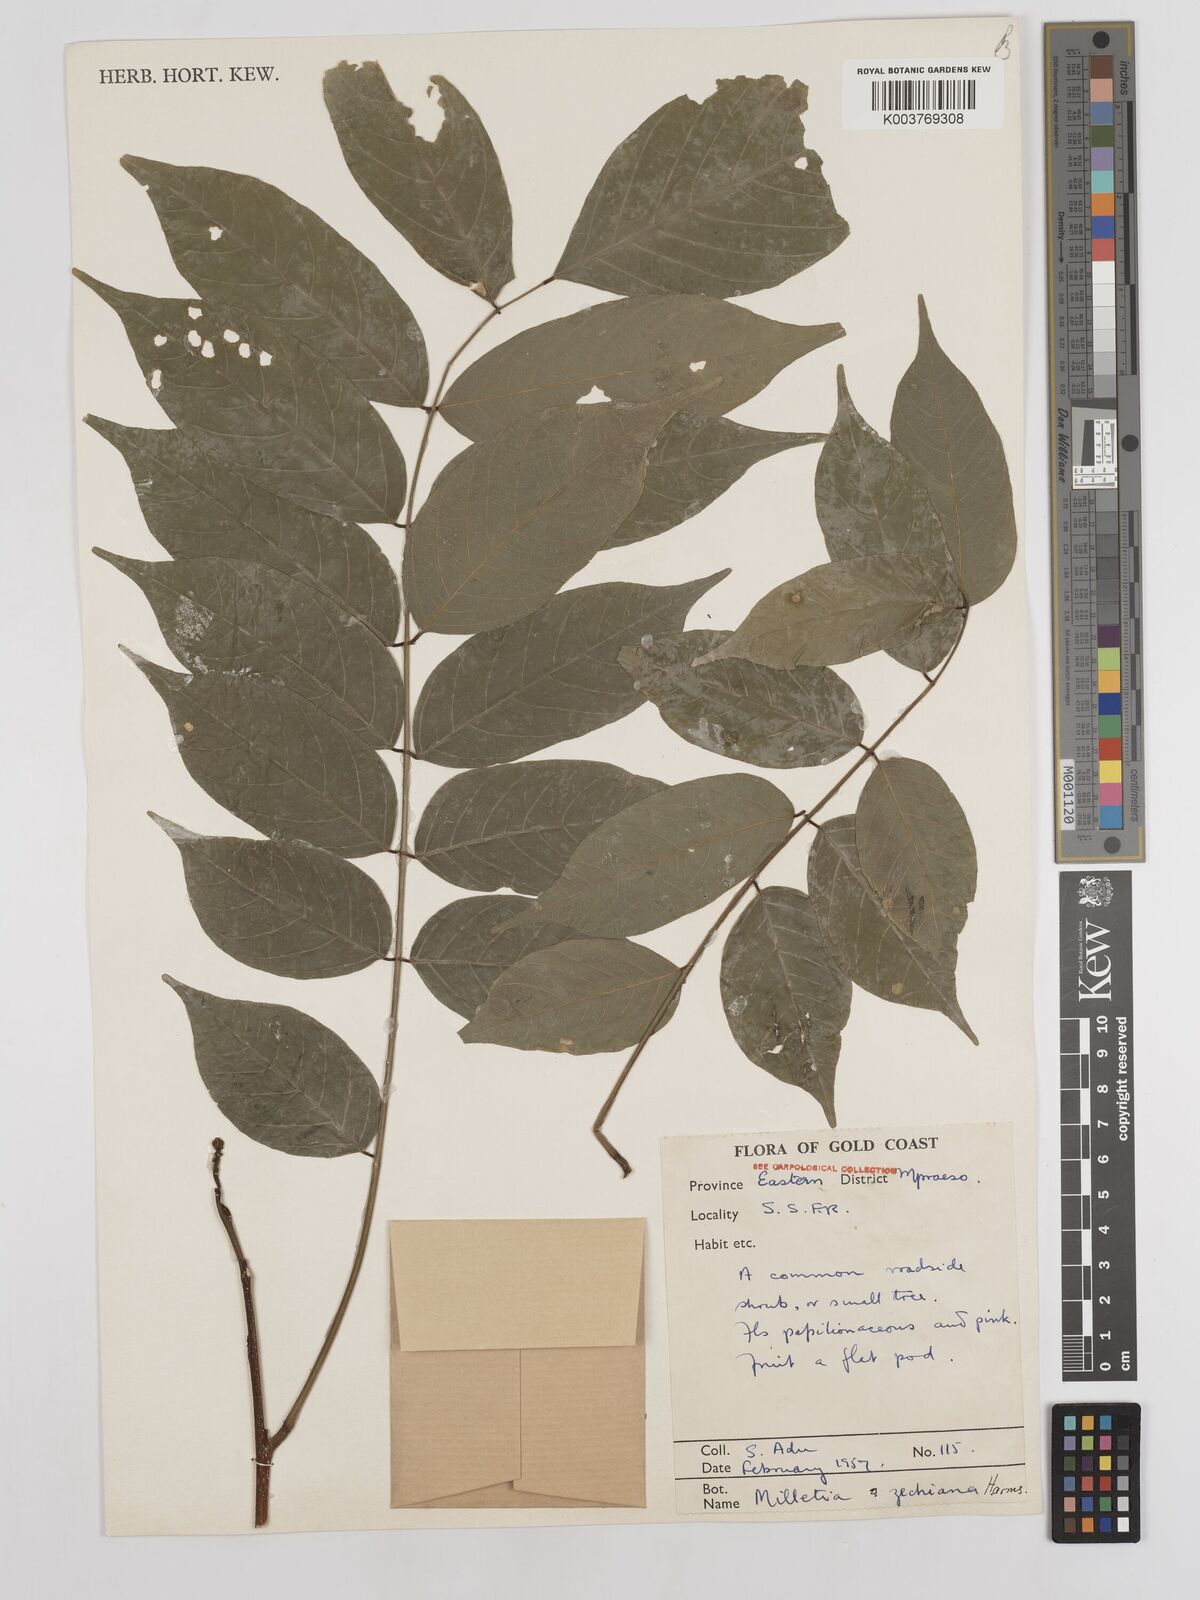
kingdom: Plantae
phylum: Tracheophyta
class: Magnoliopsida
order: Fabales
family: Fabaceae
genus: Millettia
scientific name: Millettia zechiana
